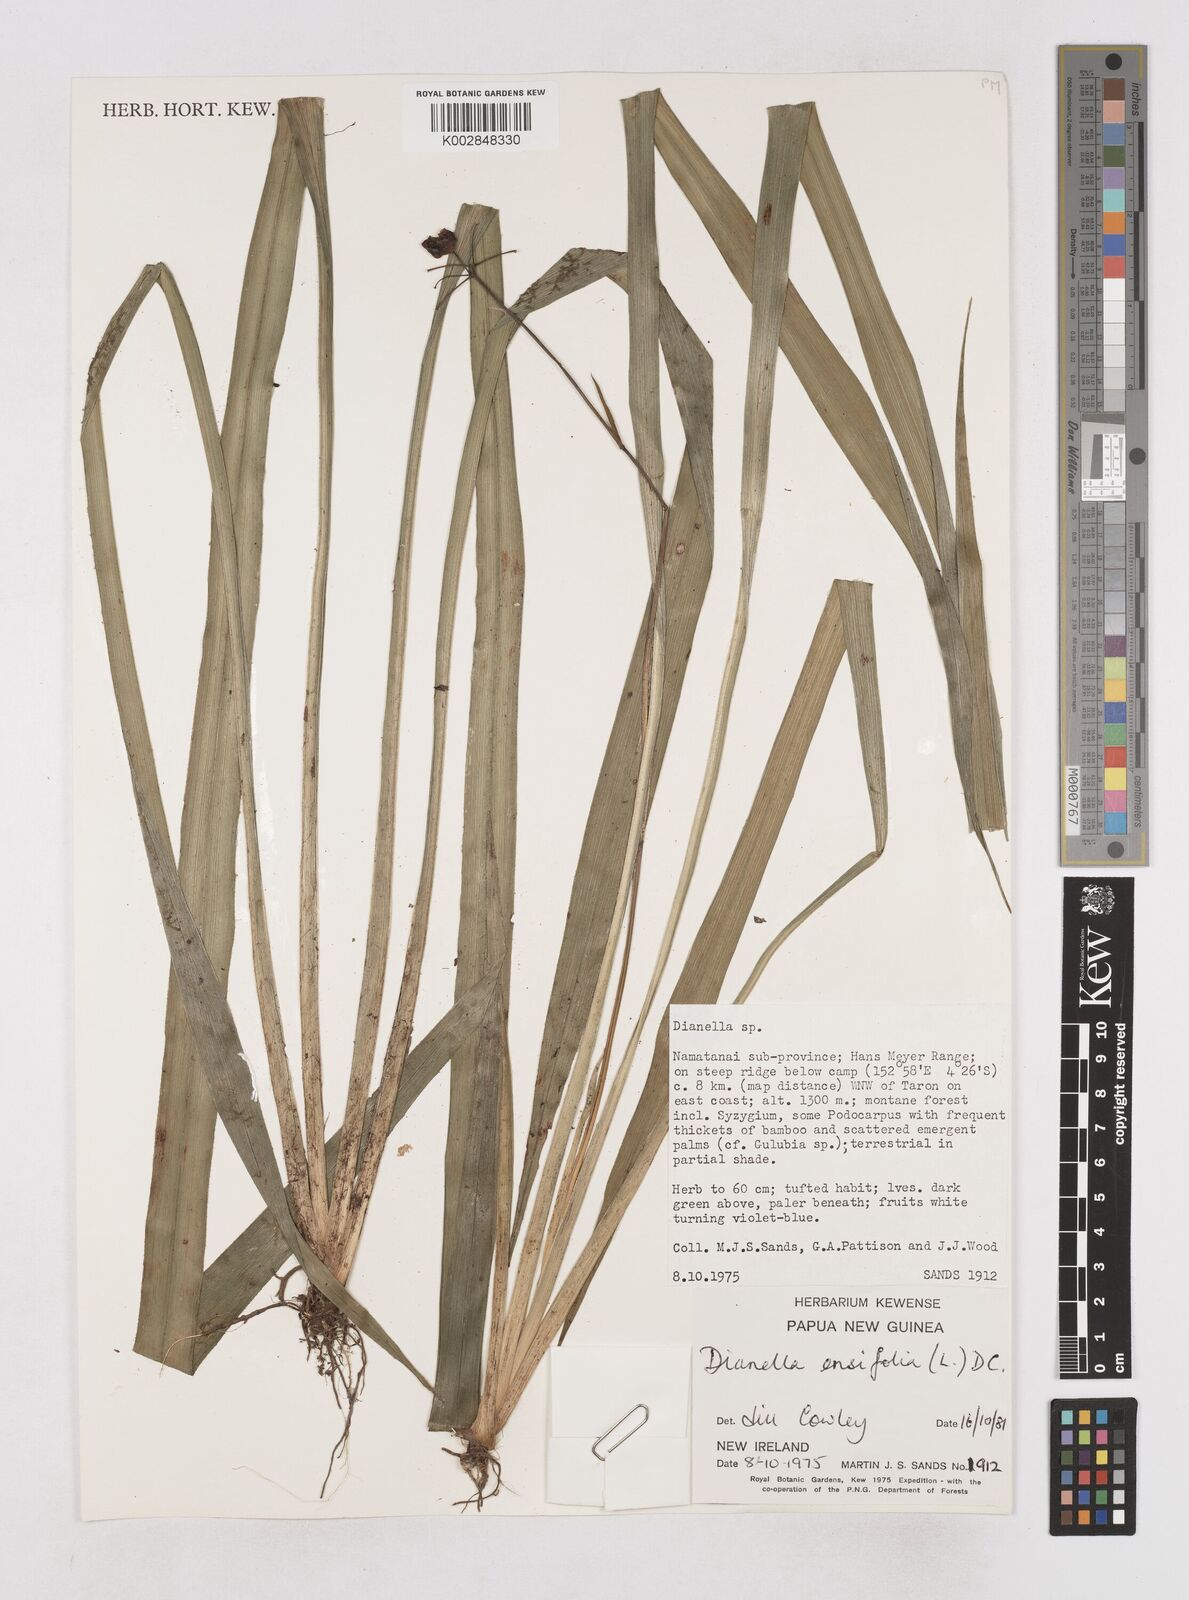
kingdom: Plantae
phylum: Tracheophyta
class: Liliopsida
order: Asparagales
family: Asphodelaceae
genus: Dianella
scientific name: Dianella ensifolia
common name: New zealand lilyplant
